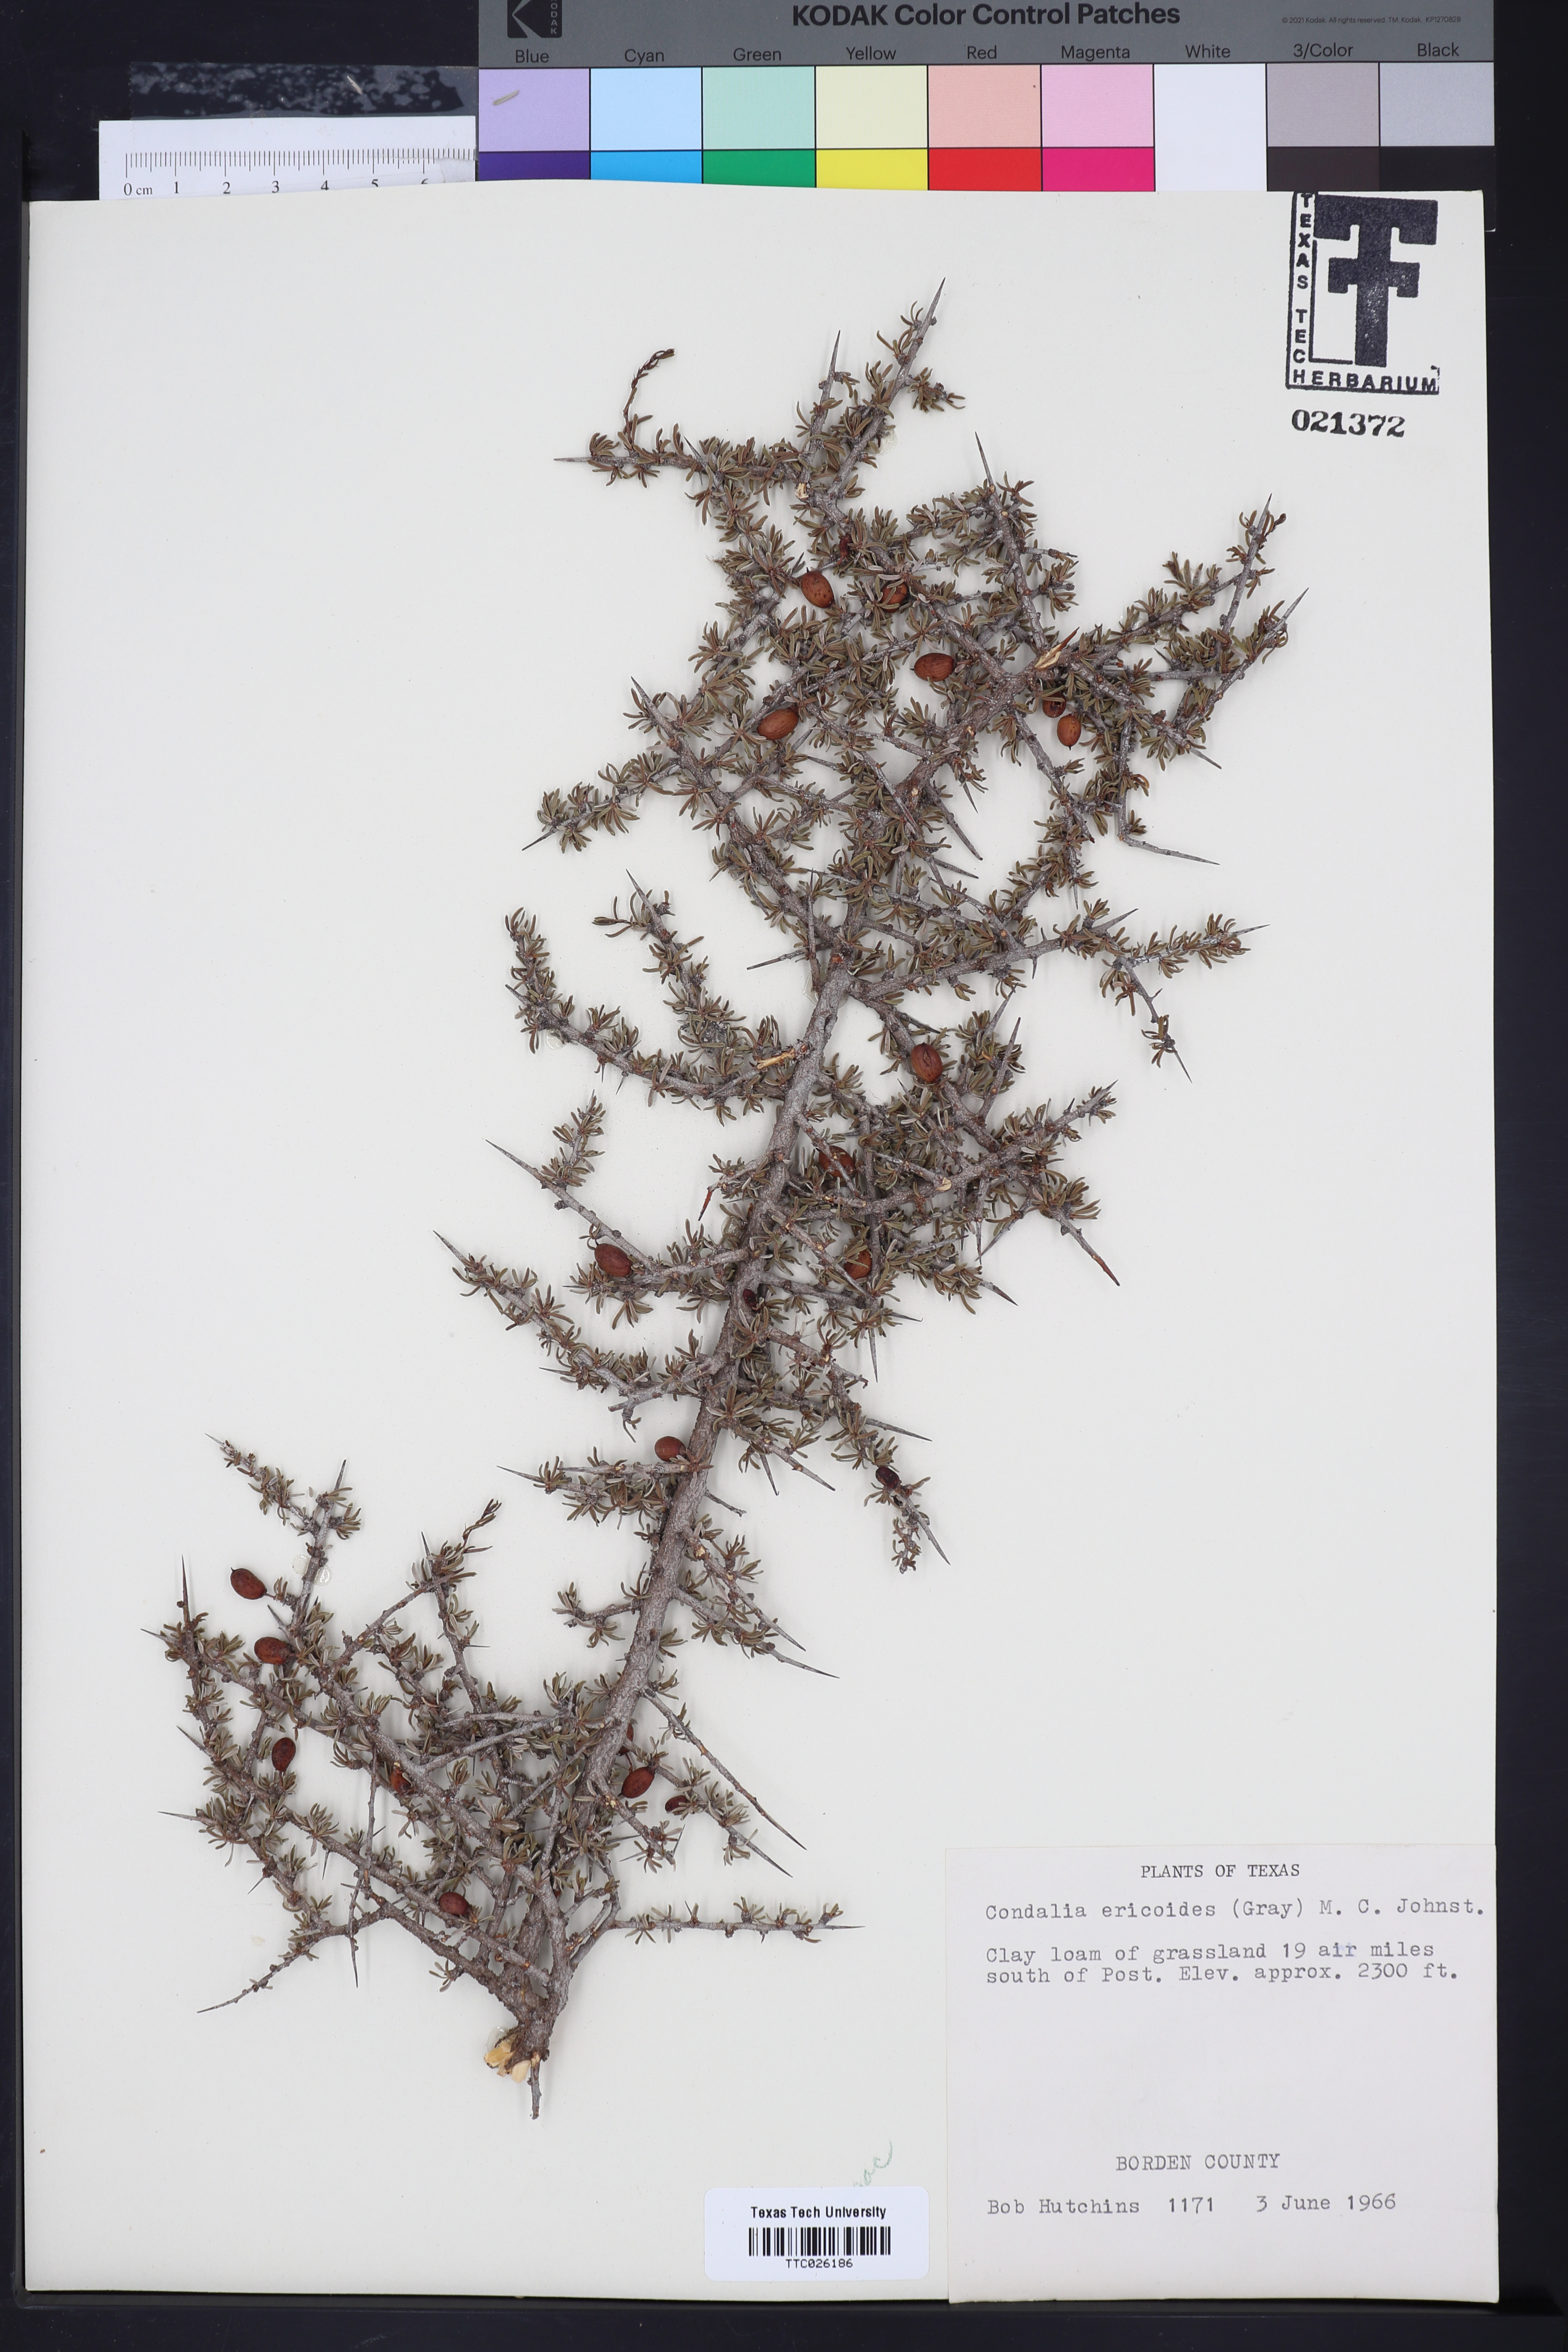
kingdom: Plantae
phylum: Tracheophyta
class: Magnoliopsida
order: Rosales
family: Rhamnaceae
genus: Condalia
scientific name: Condalia ericoides
